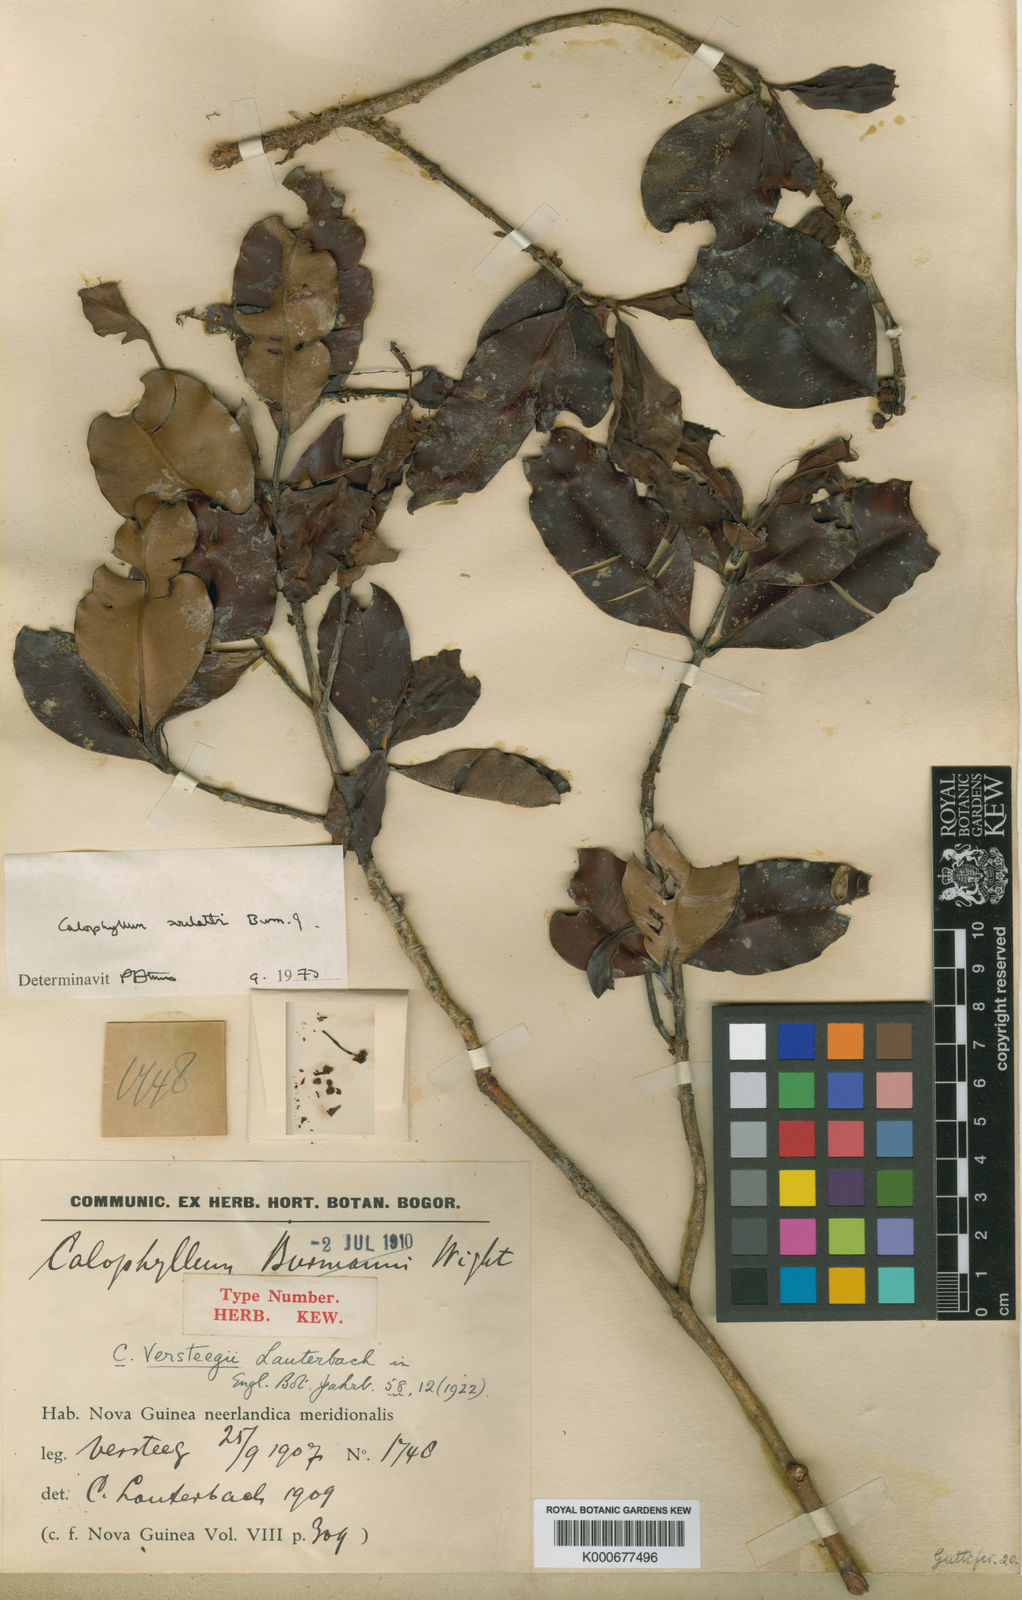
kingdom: Plantae
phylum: Tracheophyta
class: Magnoliopsida
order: Malpighiales
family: Calophyllaceae
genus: Calophyllum
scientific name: Calophyllum soulattri
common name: Bitangoor boonot
